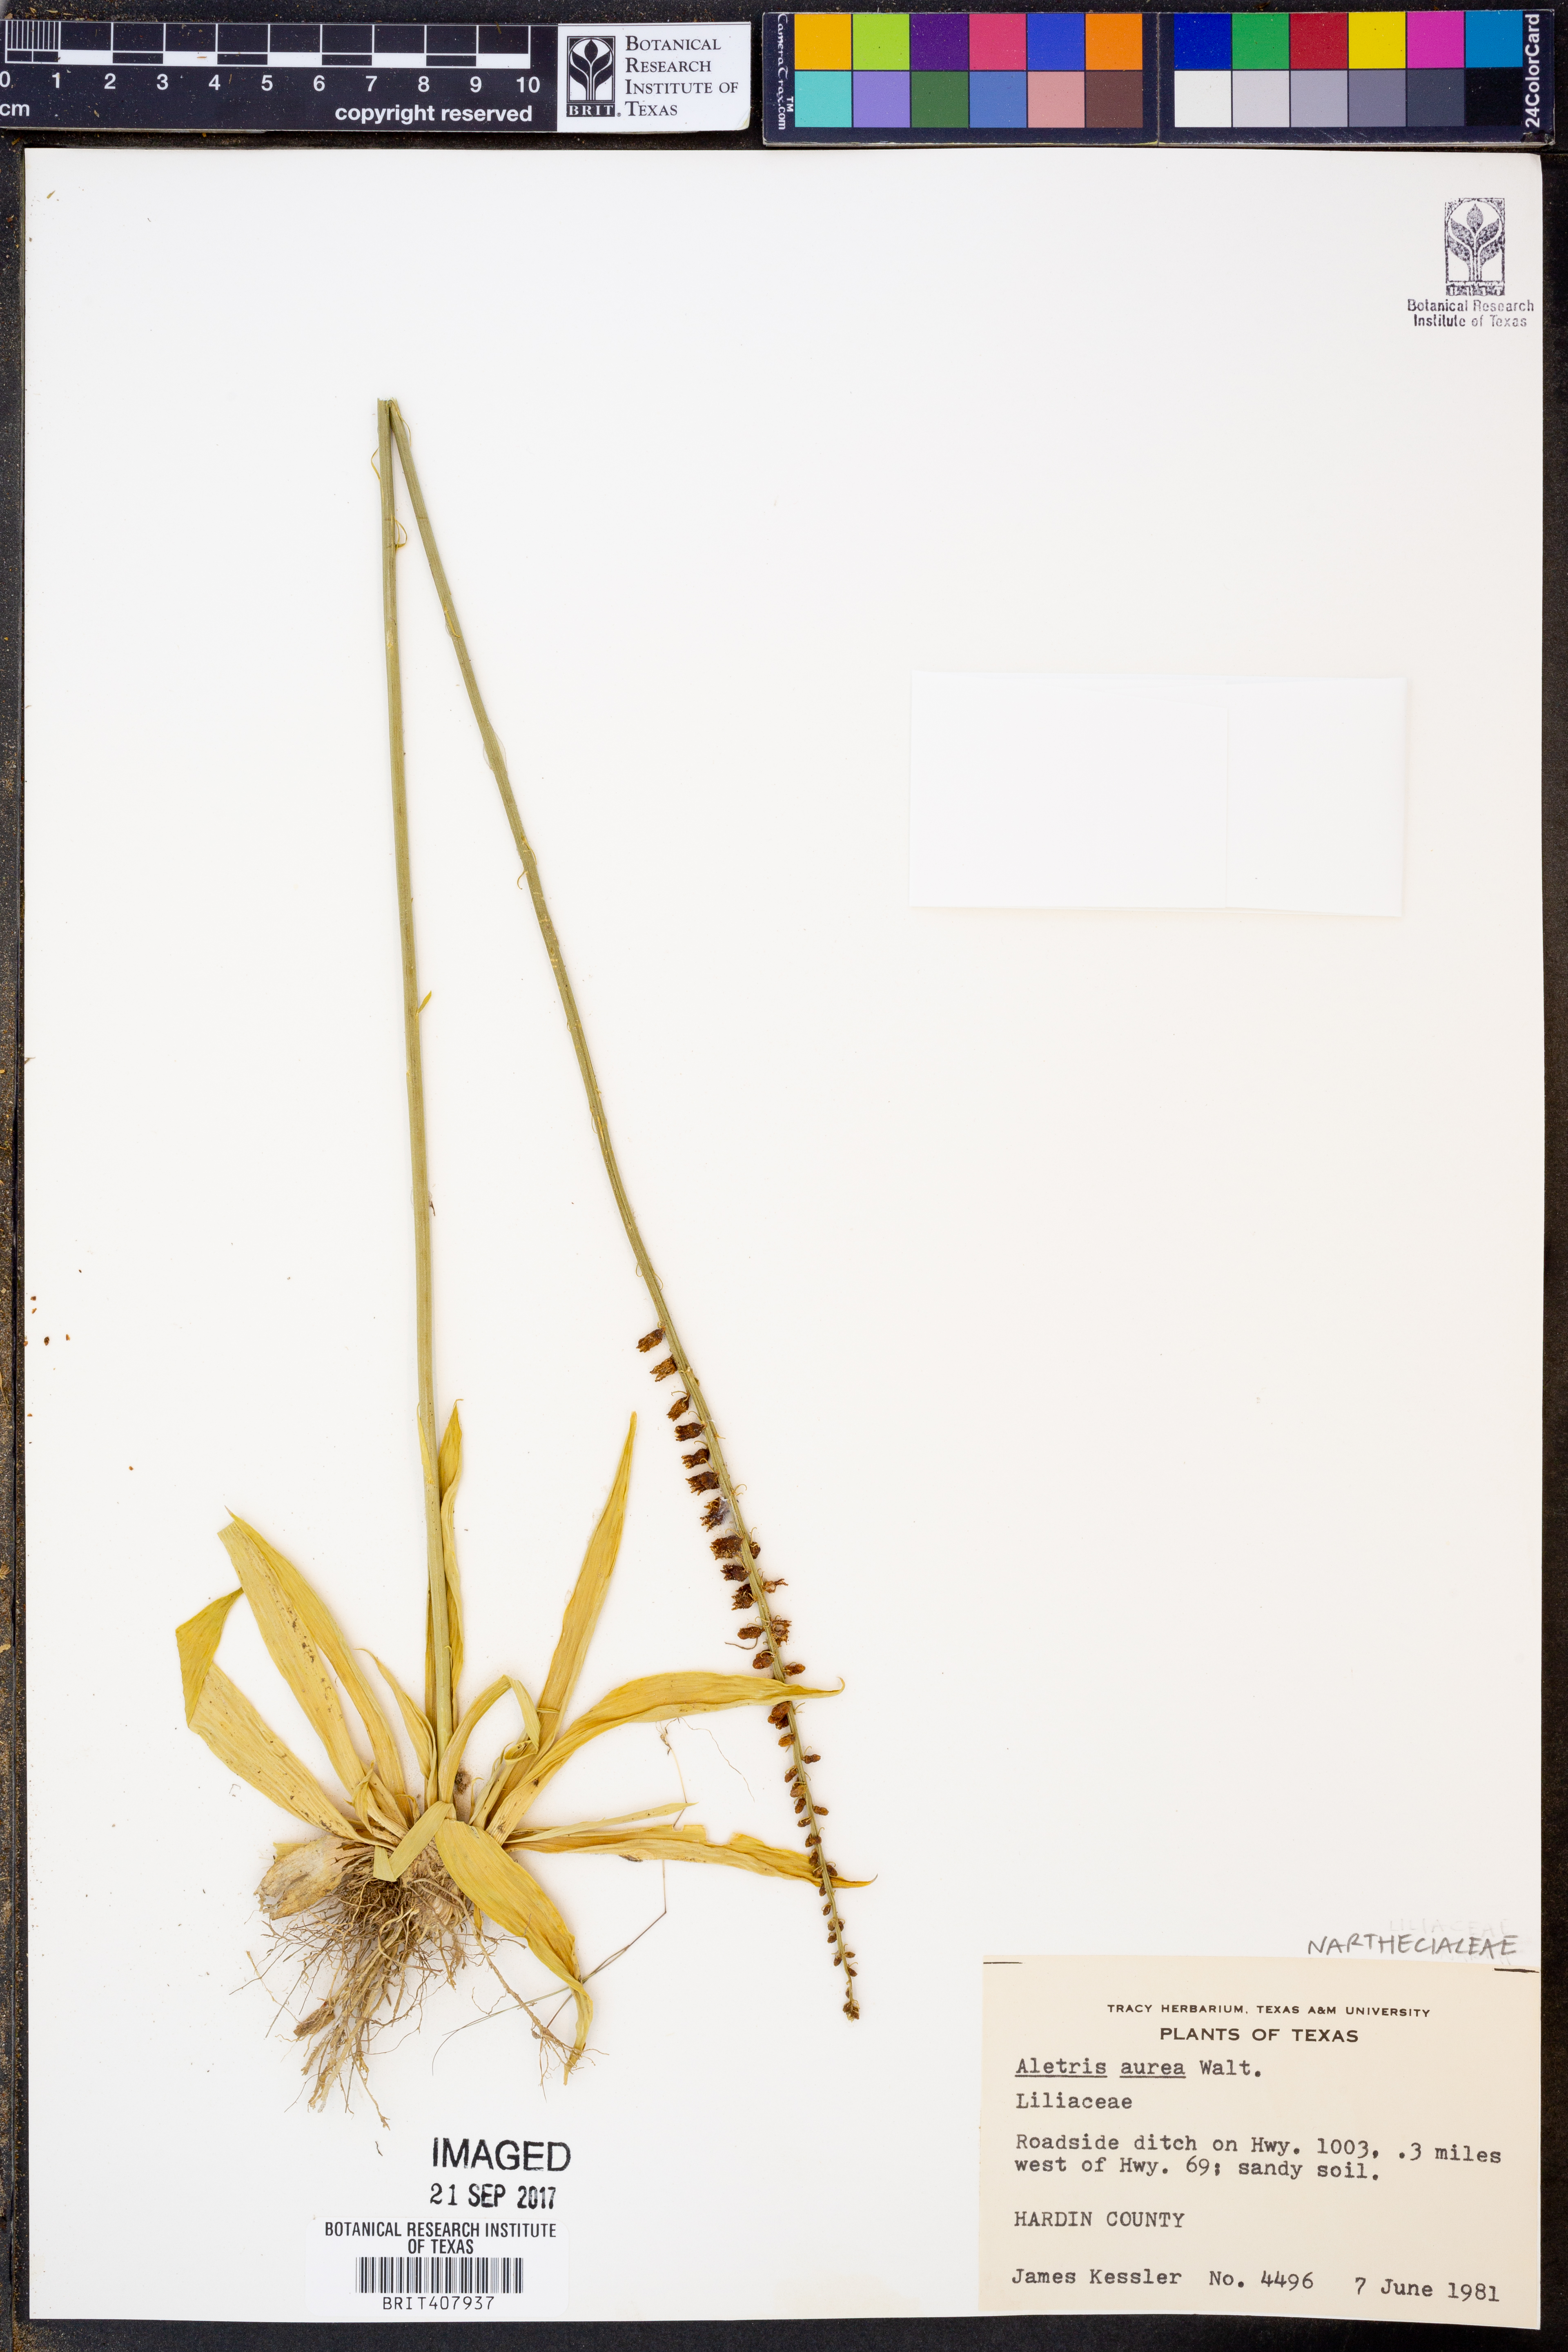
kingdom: Plantae
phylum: Tracheophyta
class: Liliopsida
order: Dioscoreales
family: Nartheciaceae
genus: Aletris
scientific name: Aletris aurea
